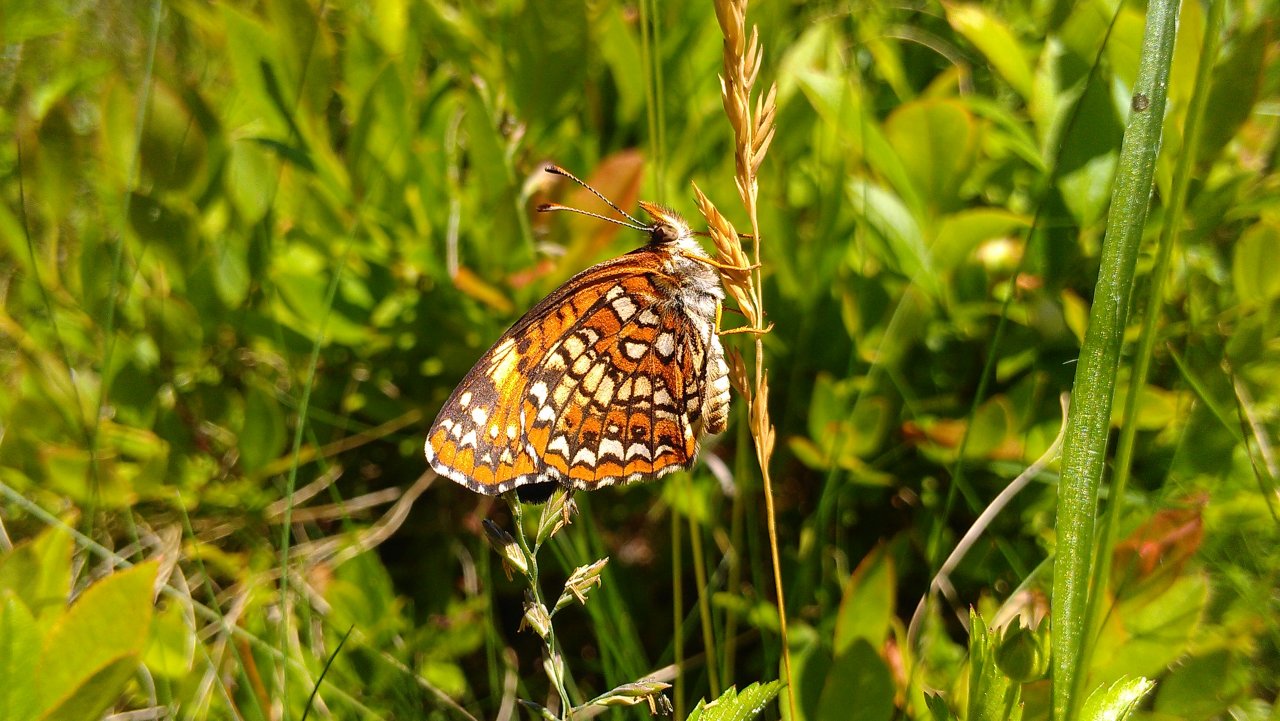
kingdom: Animalia
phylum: Arthropoda
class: Insecta
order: Lepidoptera
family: Nymphalidae
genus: Chlosyne
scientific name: Chlosyne harrisii
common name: Harris's Checkerspot
